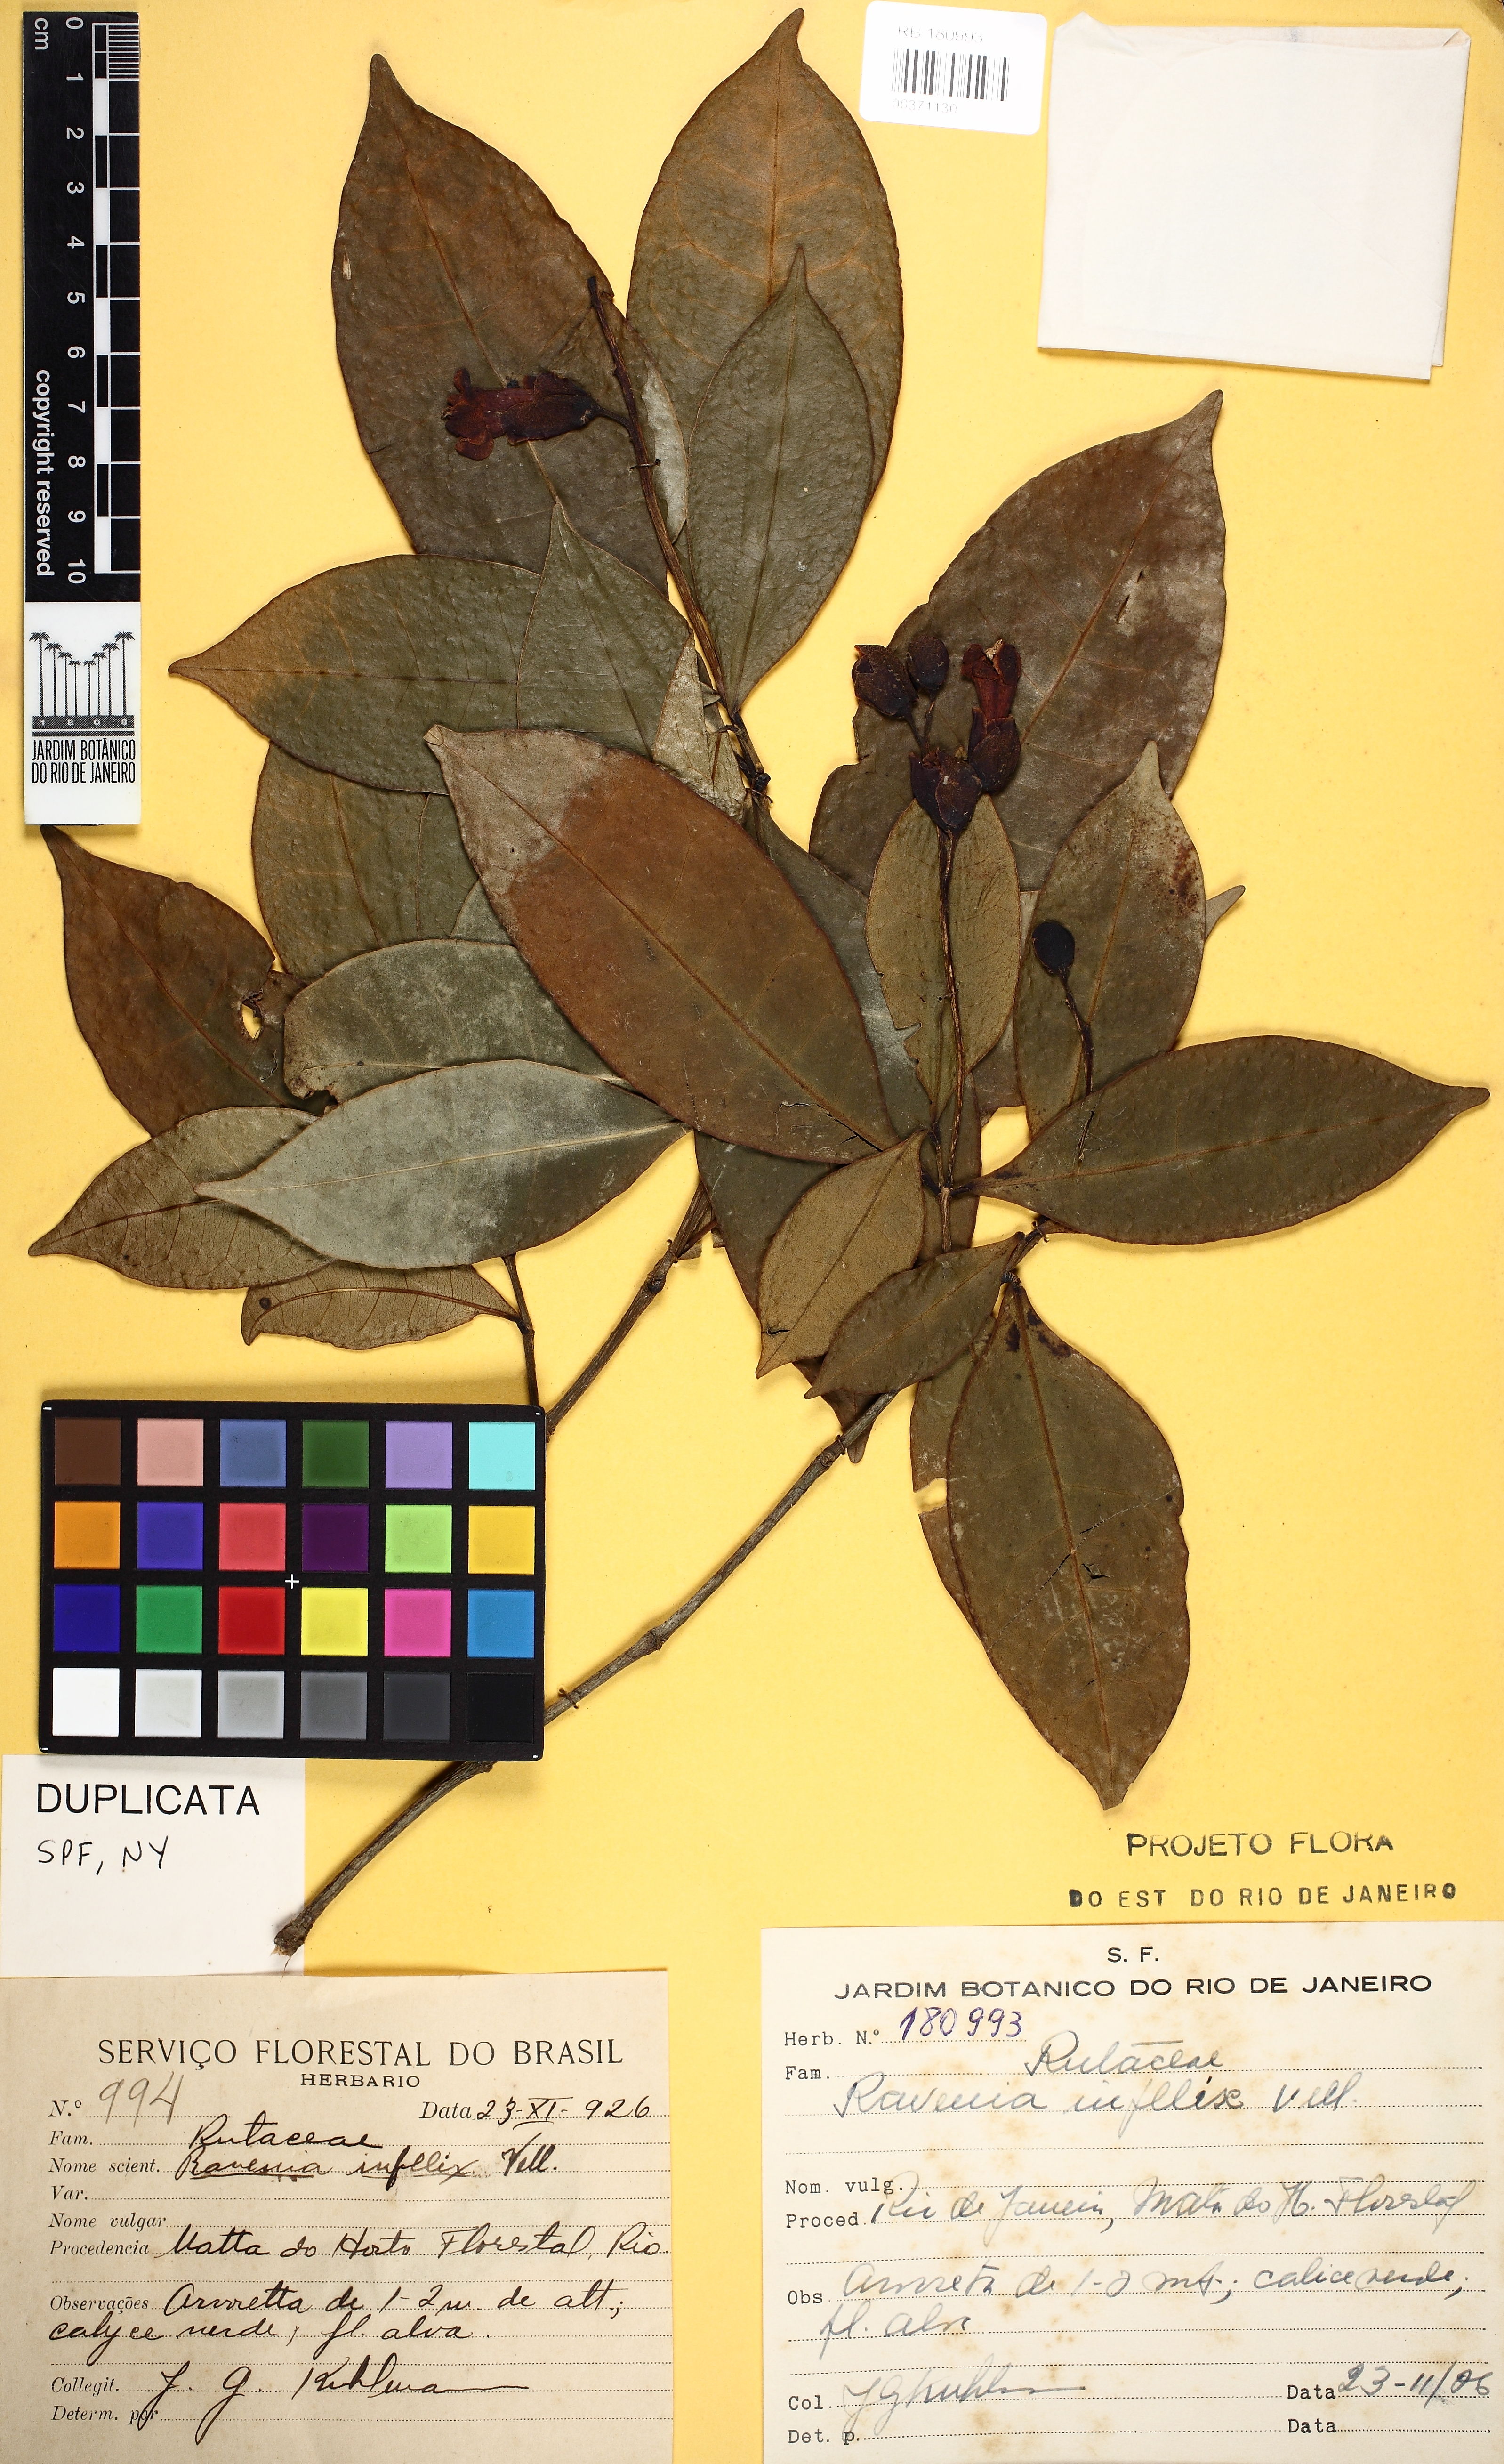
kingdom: Plantae
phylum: Tracheophyta
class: Magnoliopsida
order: Sapindales
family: Rutaceae
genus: Ravenia
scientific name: Ravenia infelix
